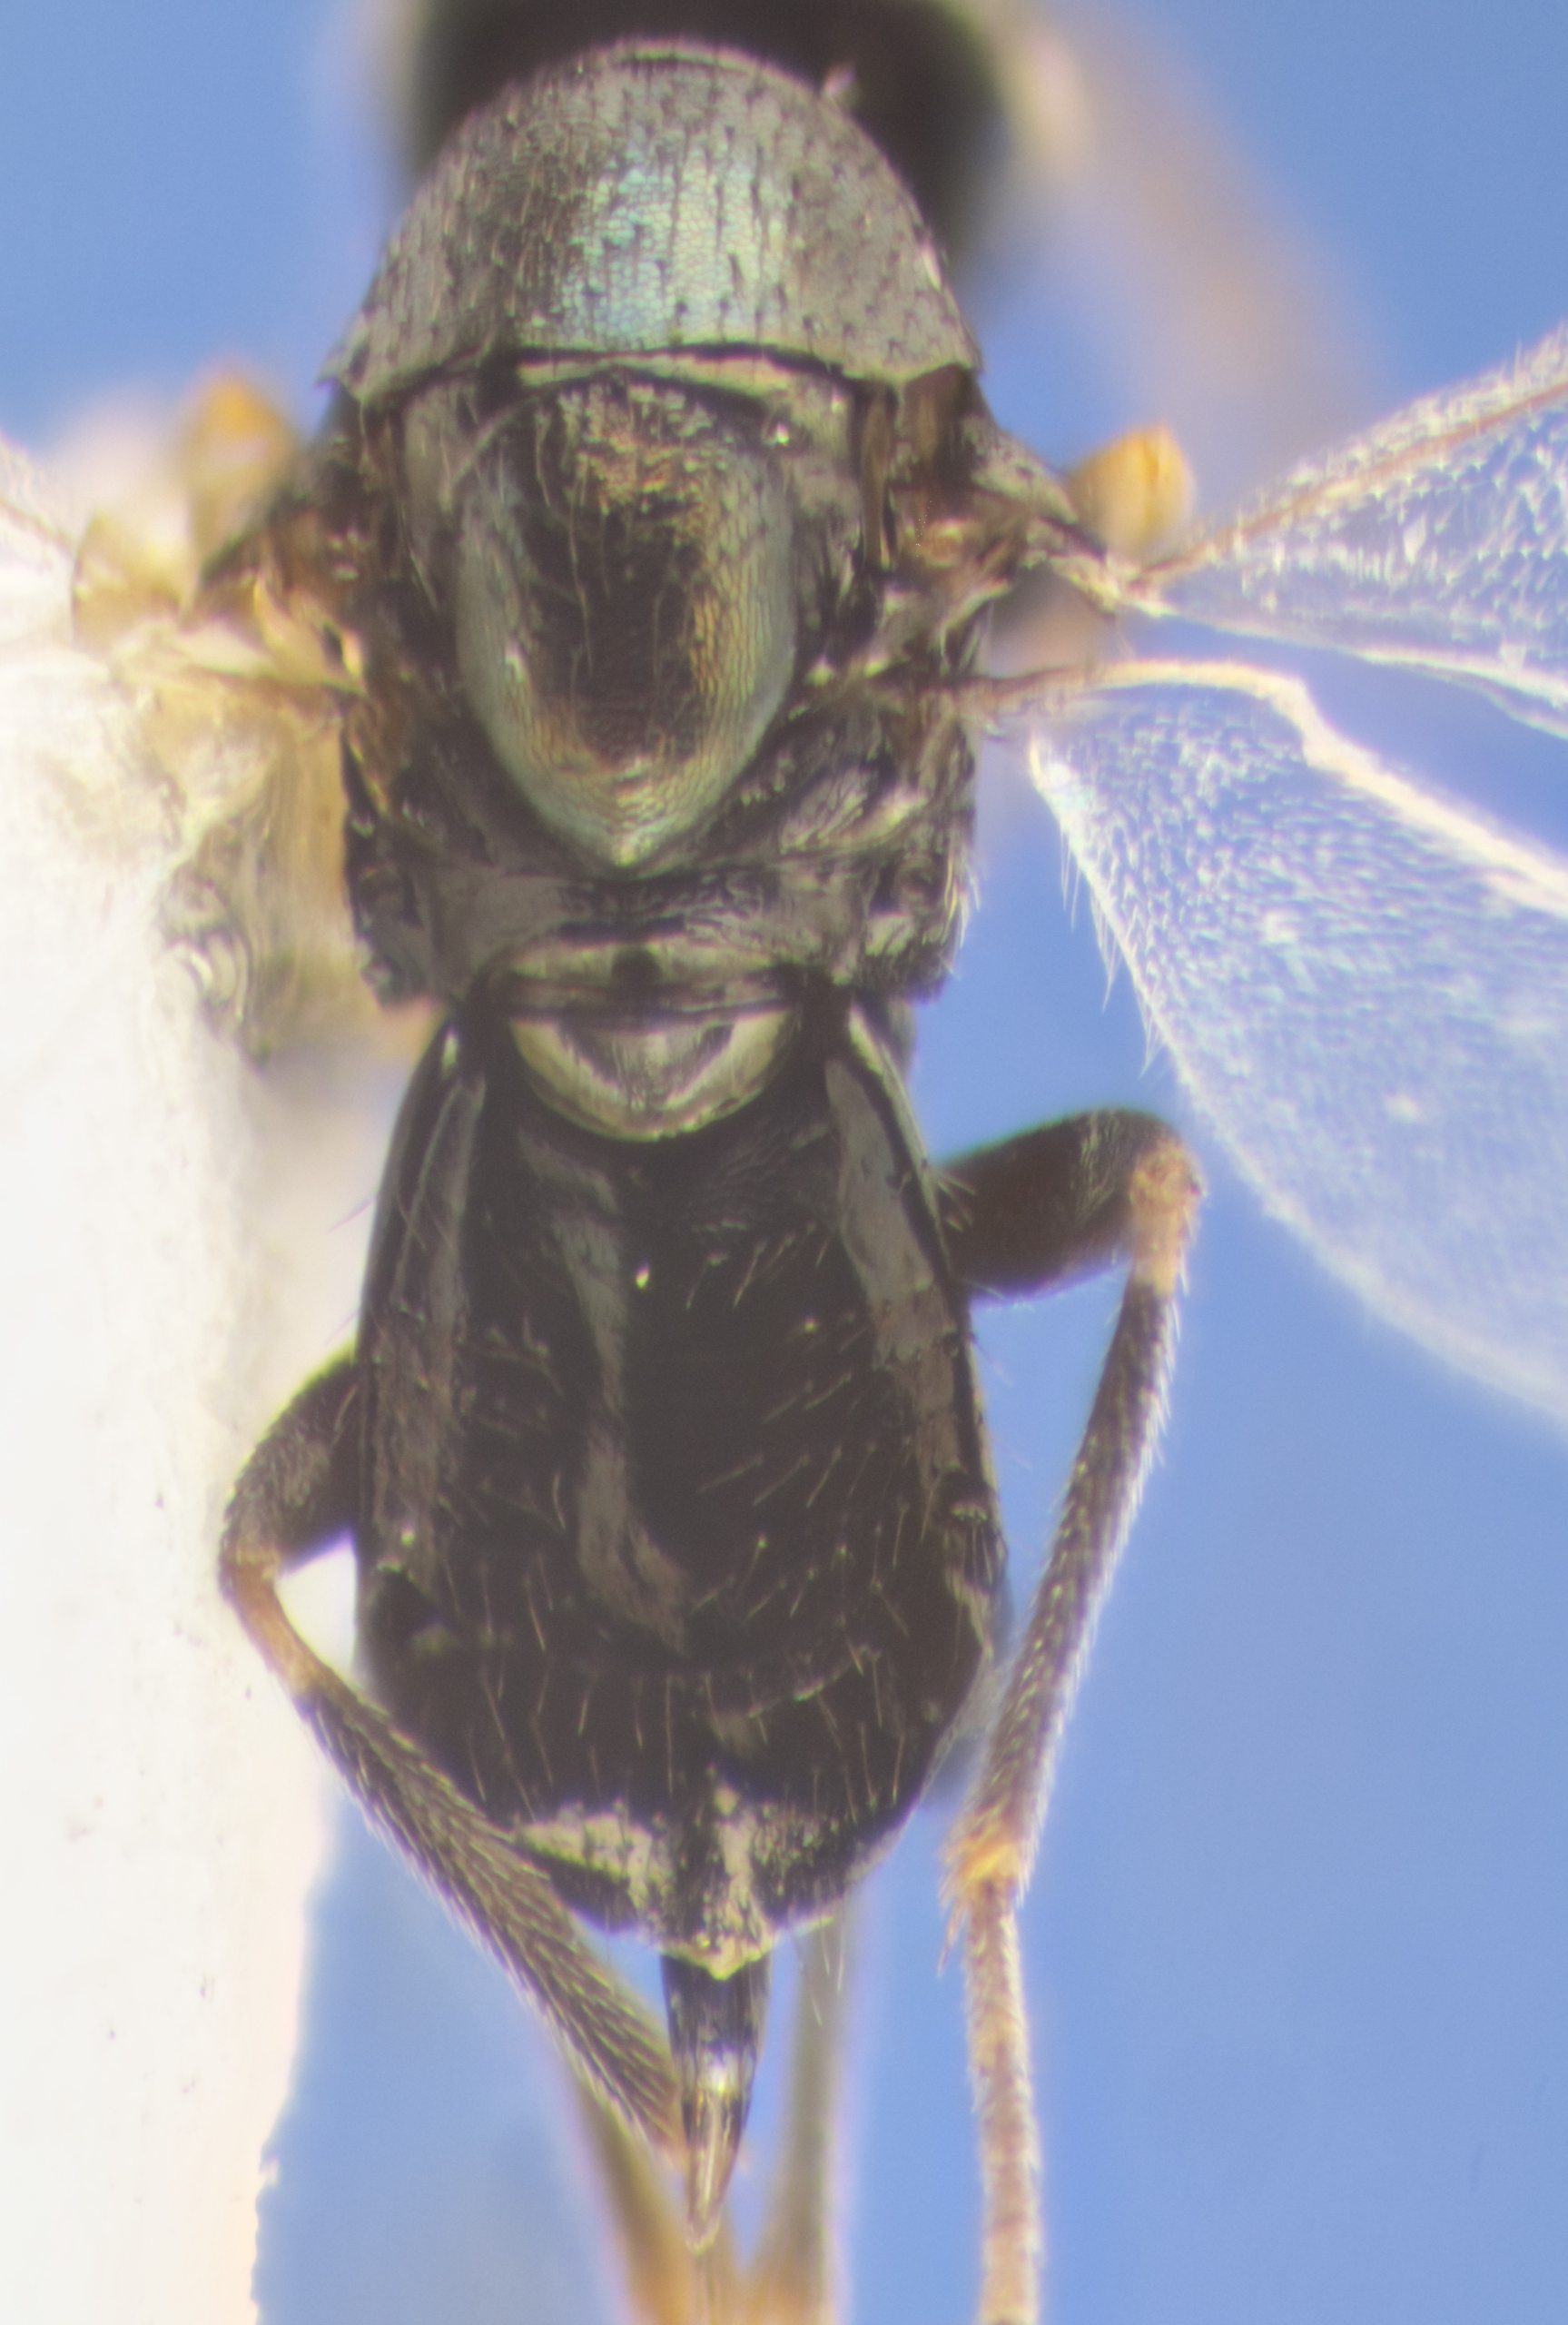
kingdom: Animalia
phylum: Arthropoda
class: Insecta
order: Hymenoptera
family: Encyrtidae
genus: Pseudencyrtus
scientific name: Pseudencyrtus misellus
